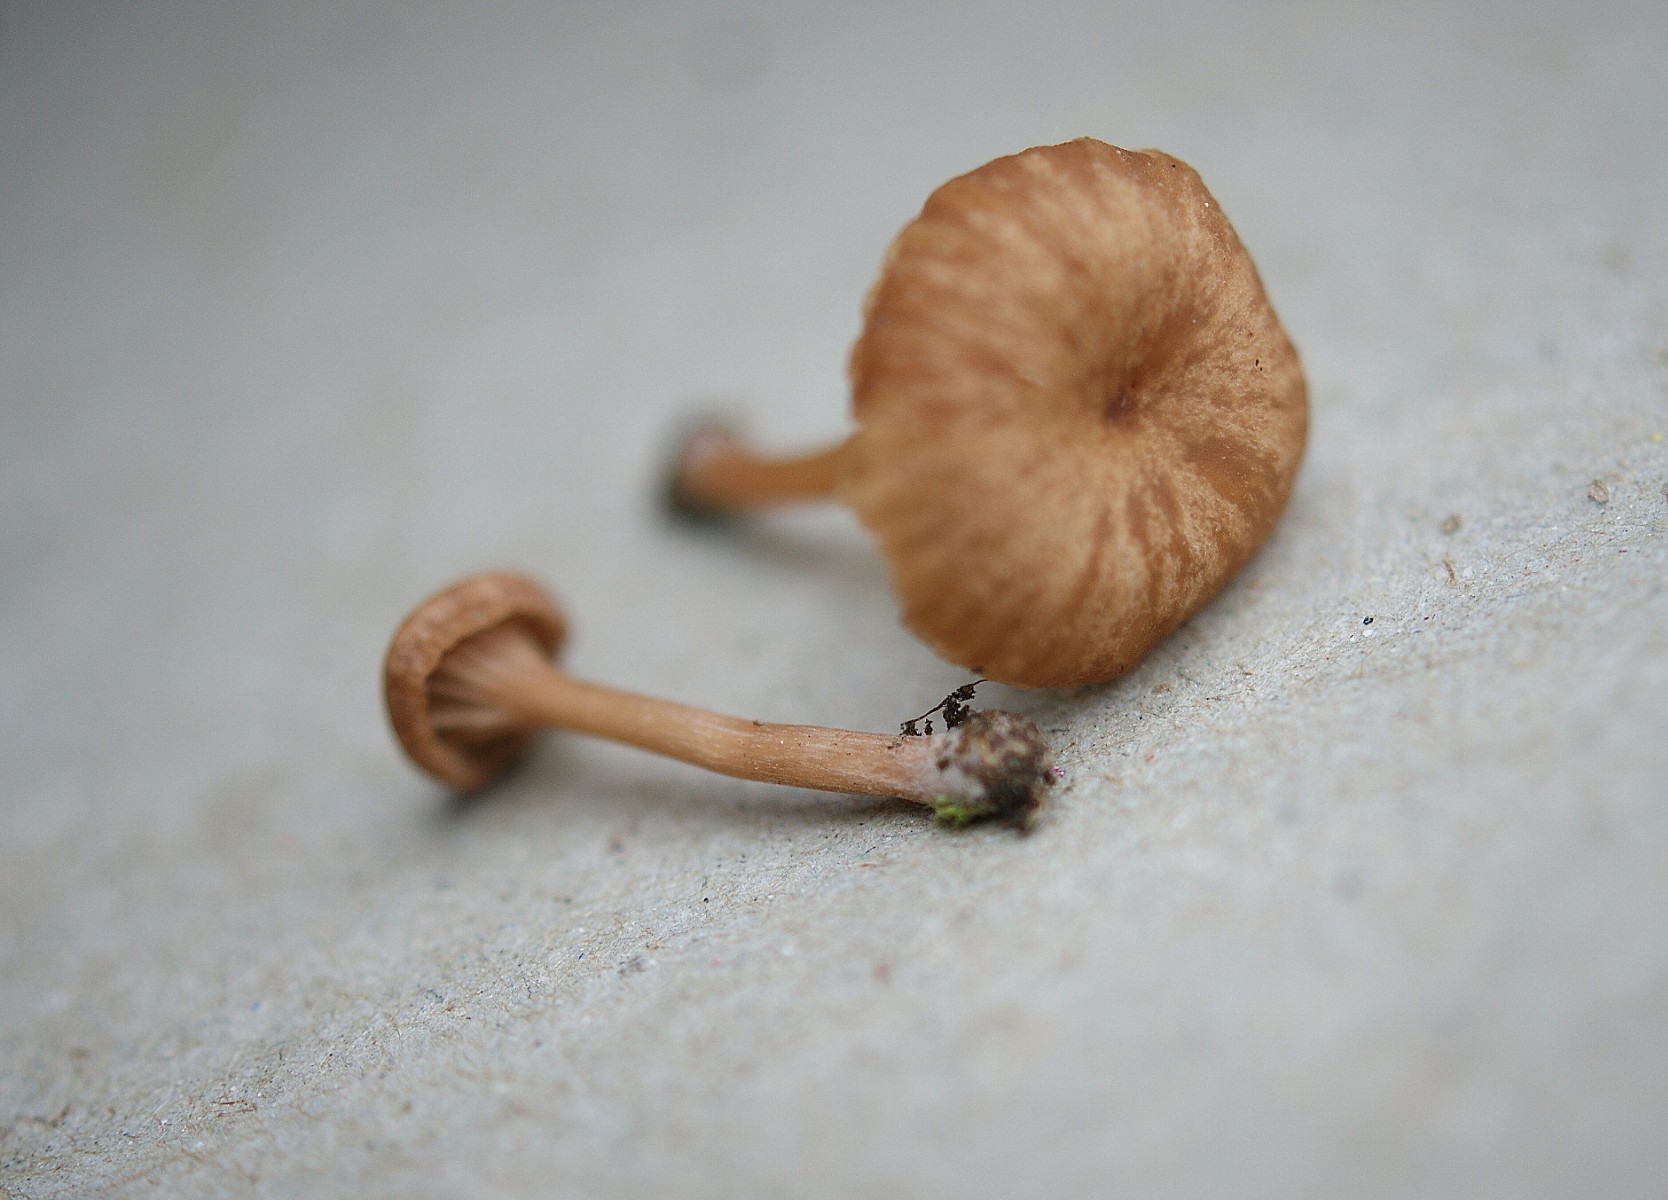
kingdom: Fungi
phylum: Basidiomycota
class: Agaricomycetes
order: Agaricales
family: Tricholomataceae
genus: Omphalina
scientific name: Omphalina pyxidata
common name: rødbrun navlehat
